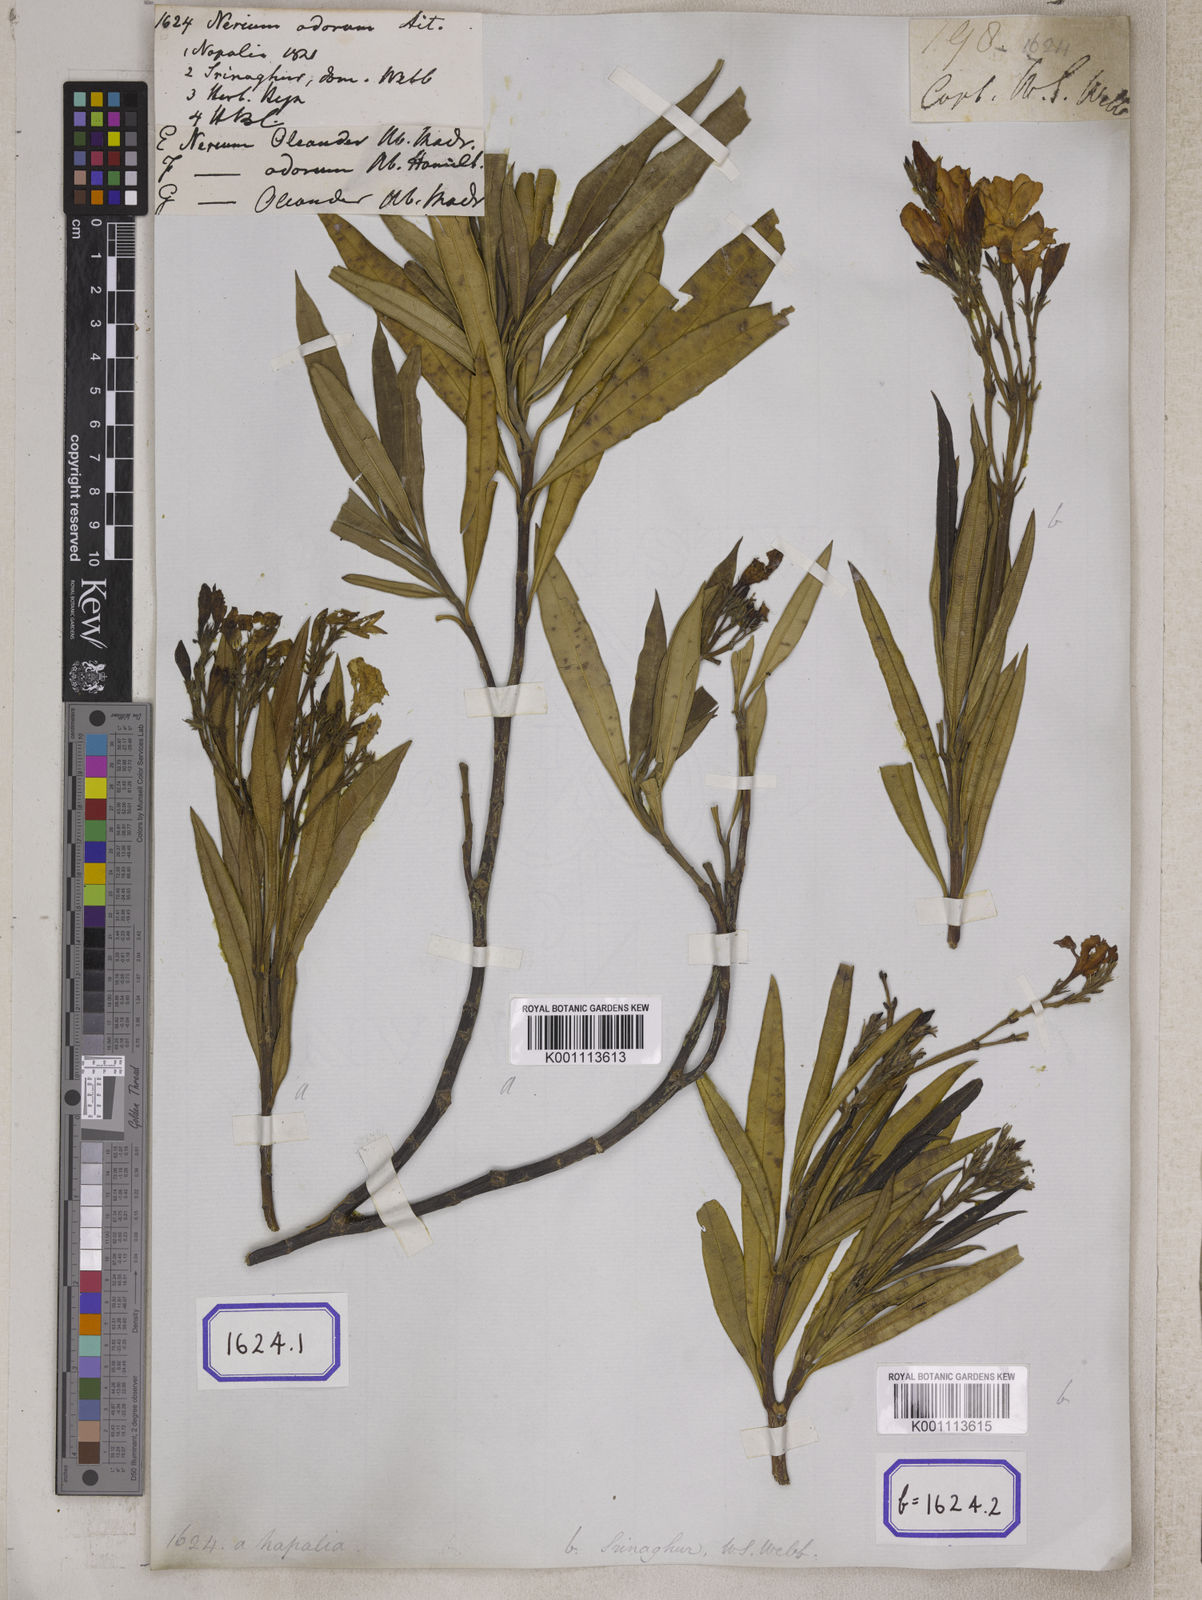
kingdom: Plantae
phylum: Tracheophyta
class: Magnoliopsida
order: Gentianales
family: Apocynaceae
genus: Nerium
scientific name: Nerium indicum
